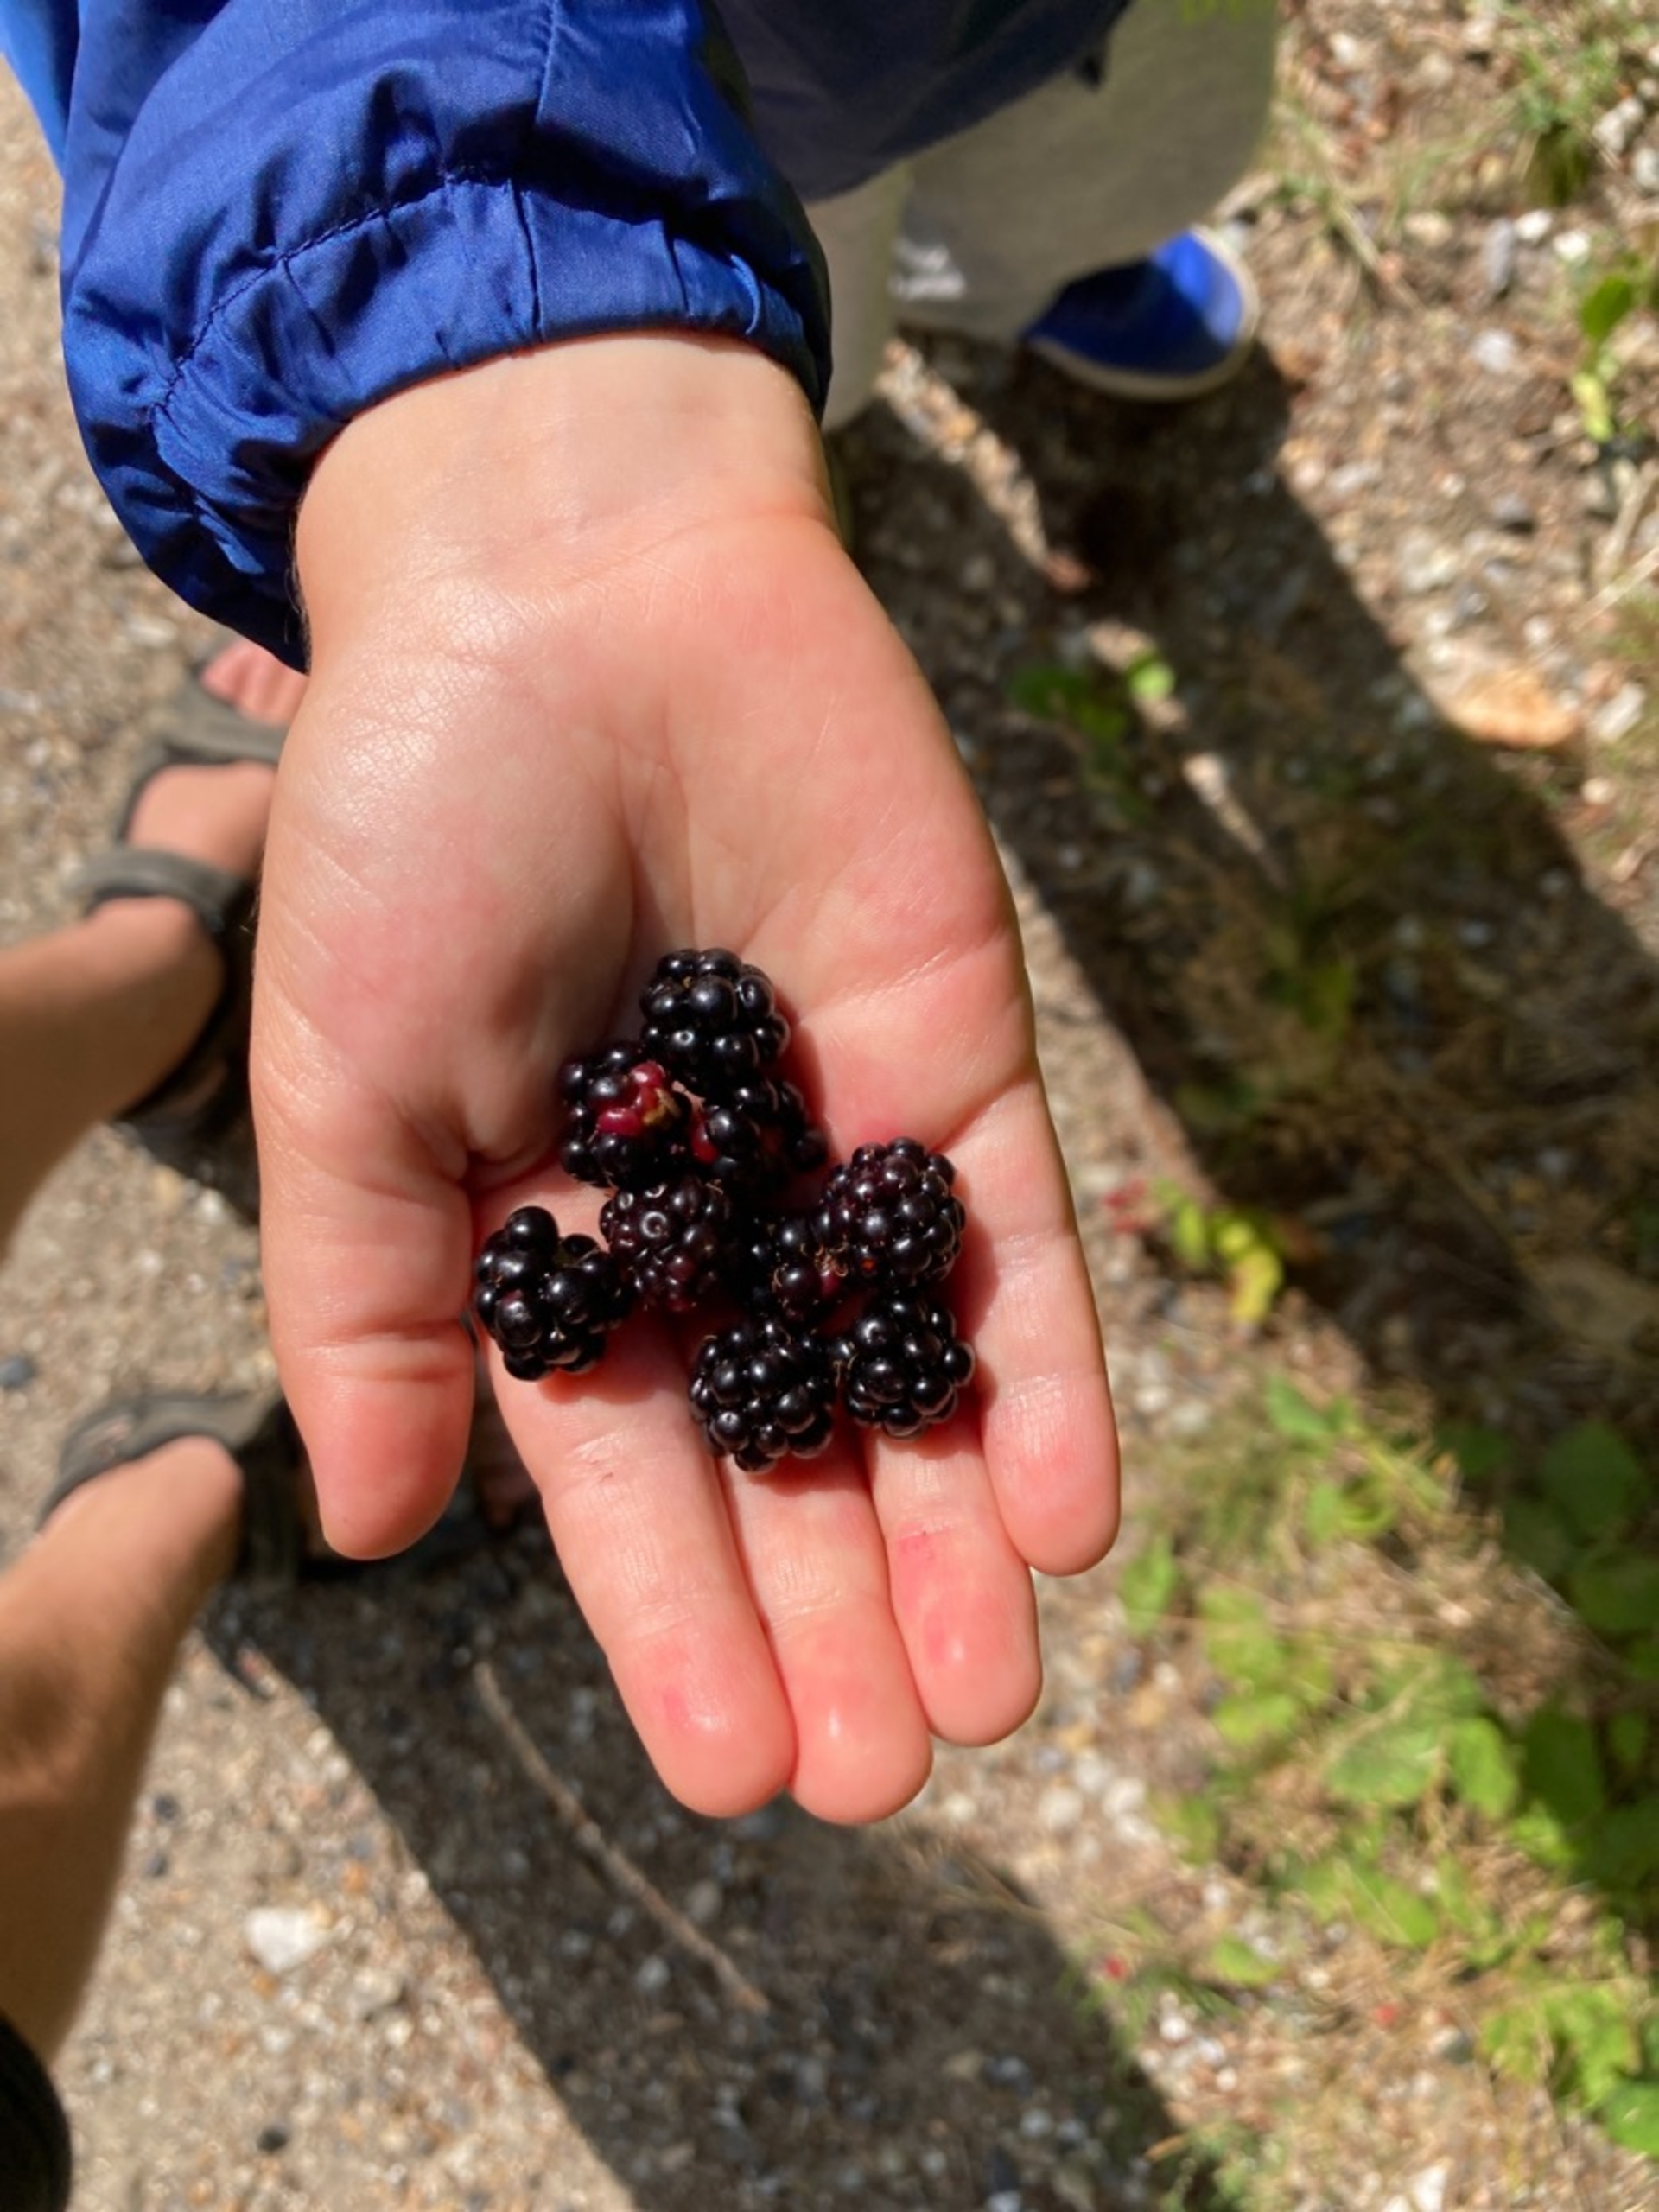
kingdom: Plantae
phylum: Tracheophyta
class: Magnoliopsida
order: Rosales
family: Rosaceae
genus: Rubus
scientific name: Rubus
